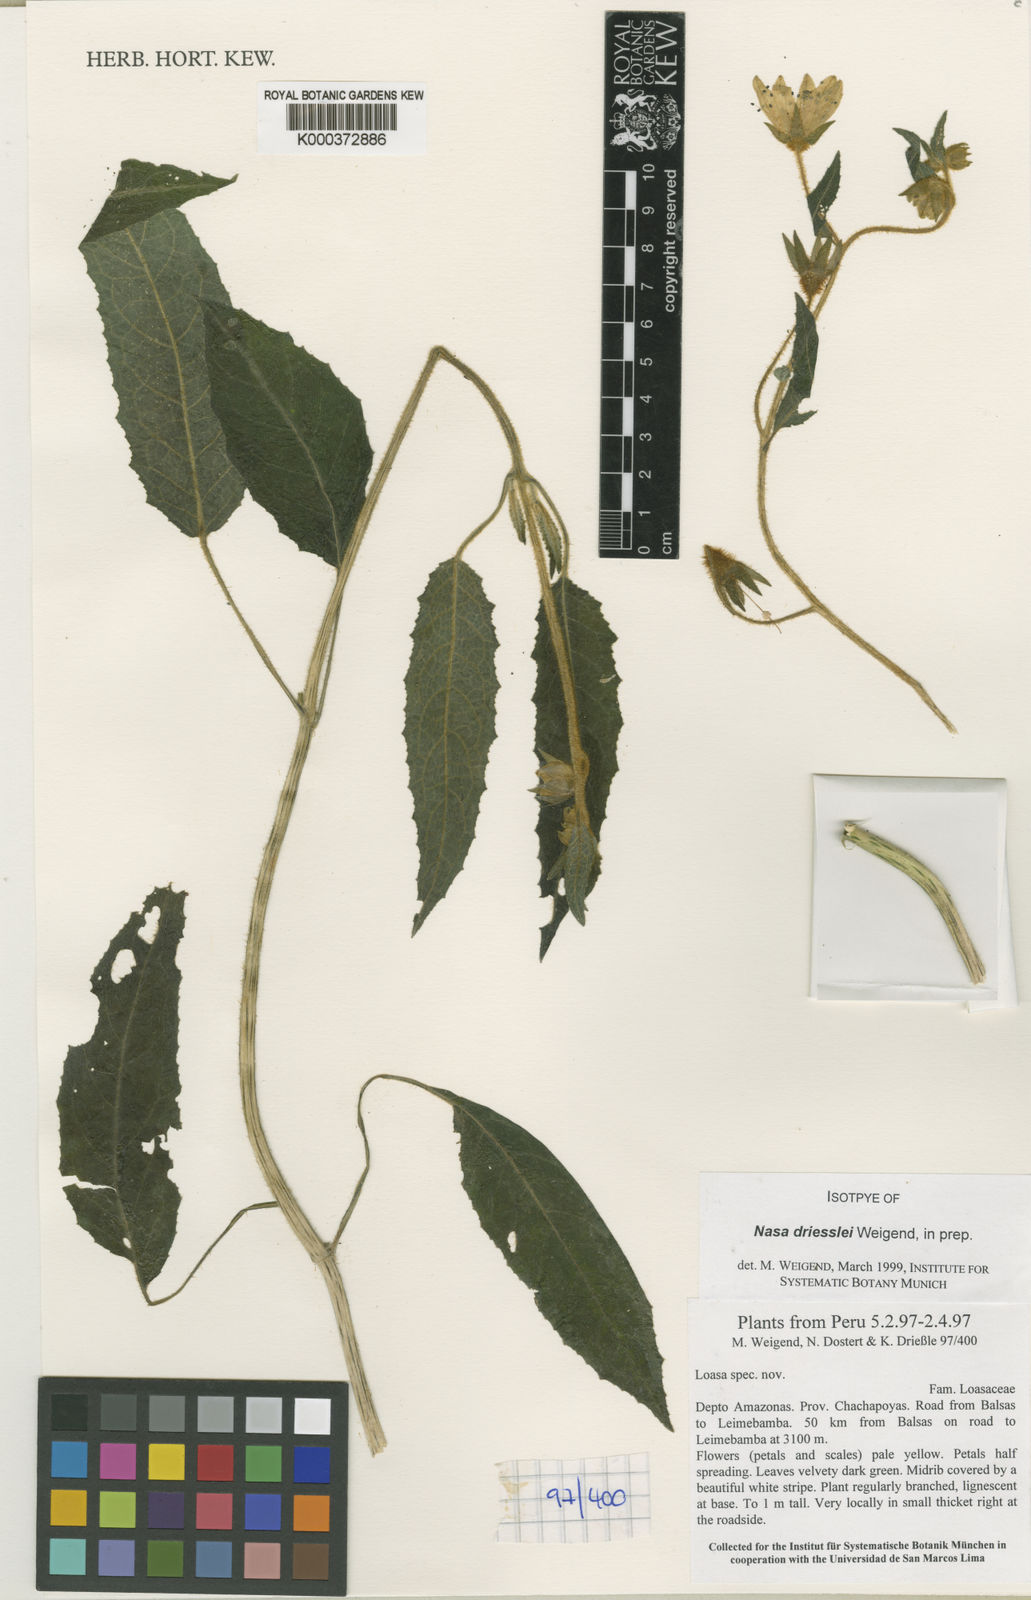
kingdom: Plantae
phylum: Tracheophyta
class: Magnoliopsida
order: Cornales
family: Loasaceae
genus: Nasa
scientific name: Nasa
